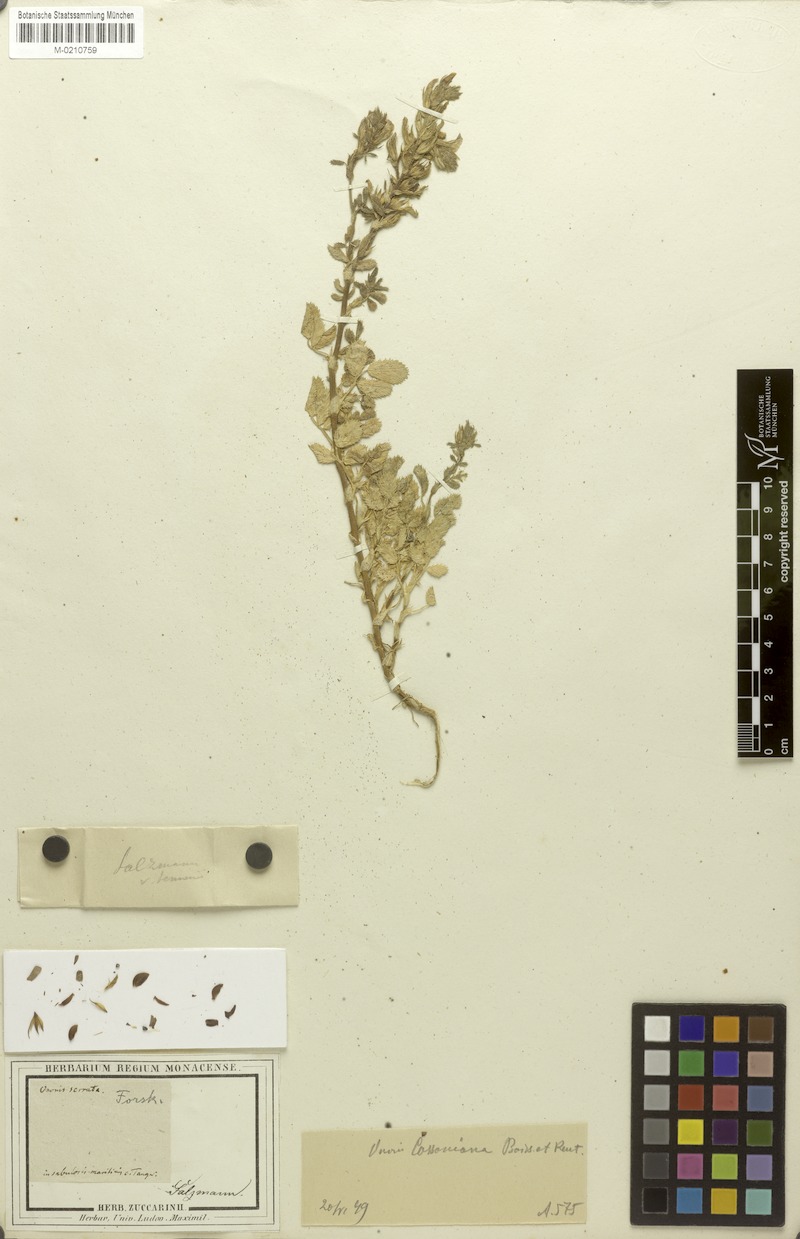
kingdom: Plantae
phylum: Tracheophyta
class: Magnoliopsida
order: Fabales
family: Fabaceae
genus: Ononis
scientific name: Ononis cossoniana
